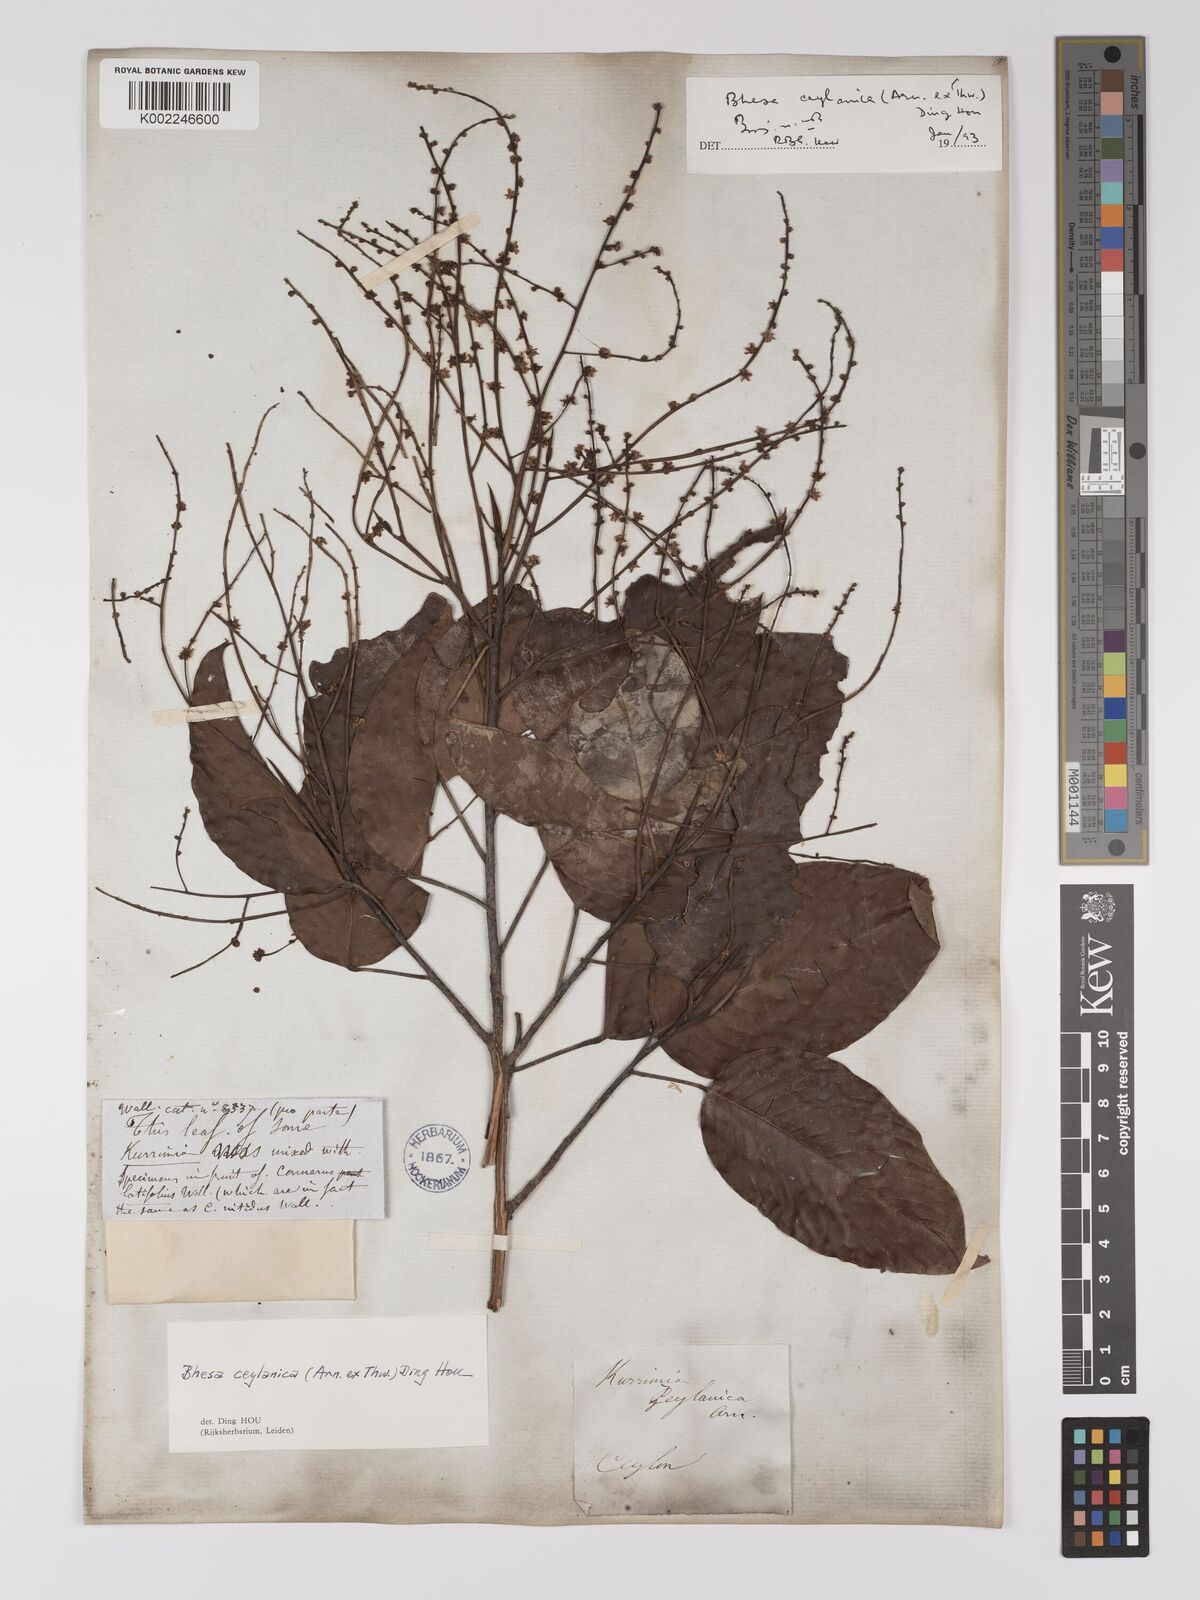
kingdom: Plantae
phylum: Tracheophyta
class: Magnoliopsida
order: Malpighiales
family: Centroplacaceae
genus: Bhesa
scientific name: Bhesa ceylanica
